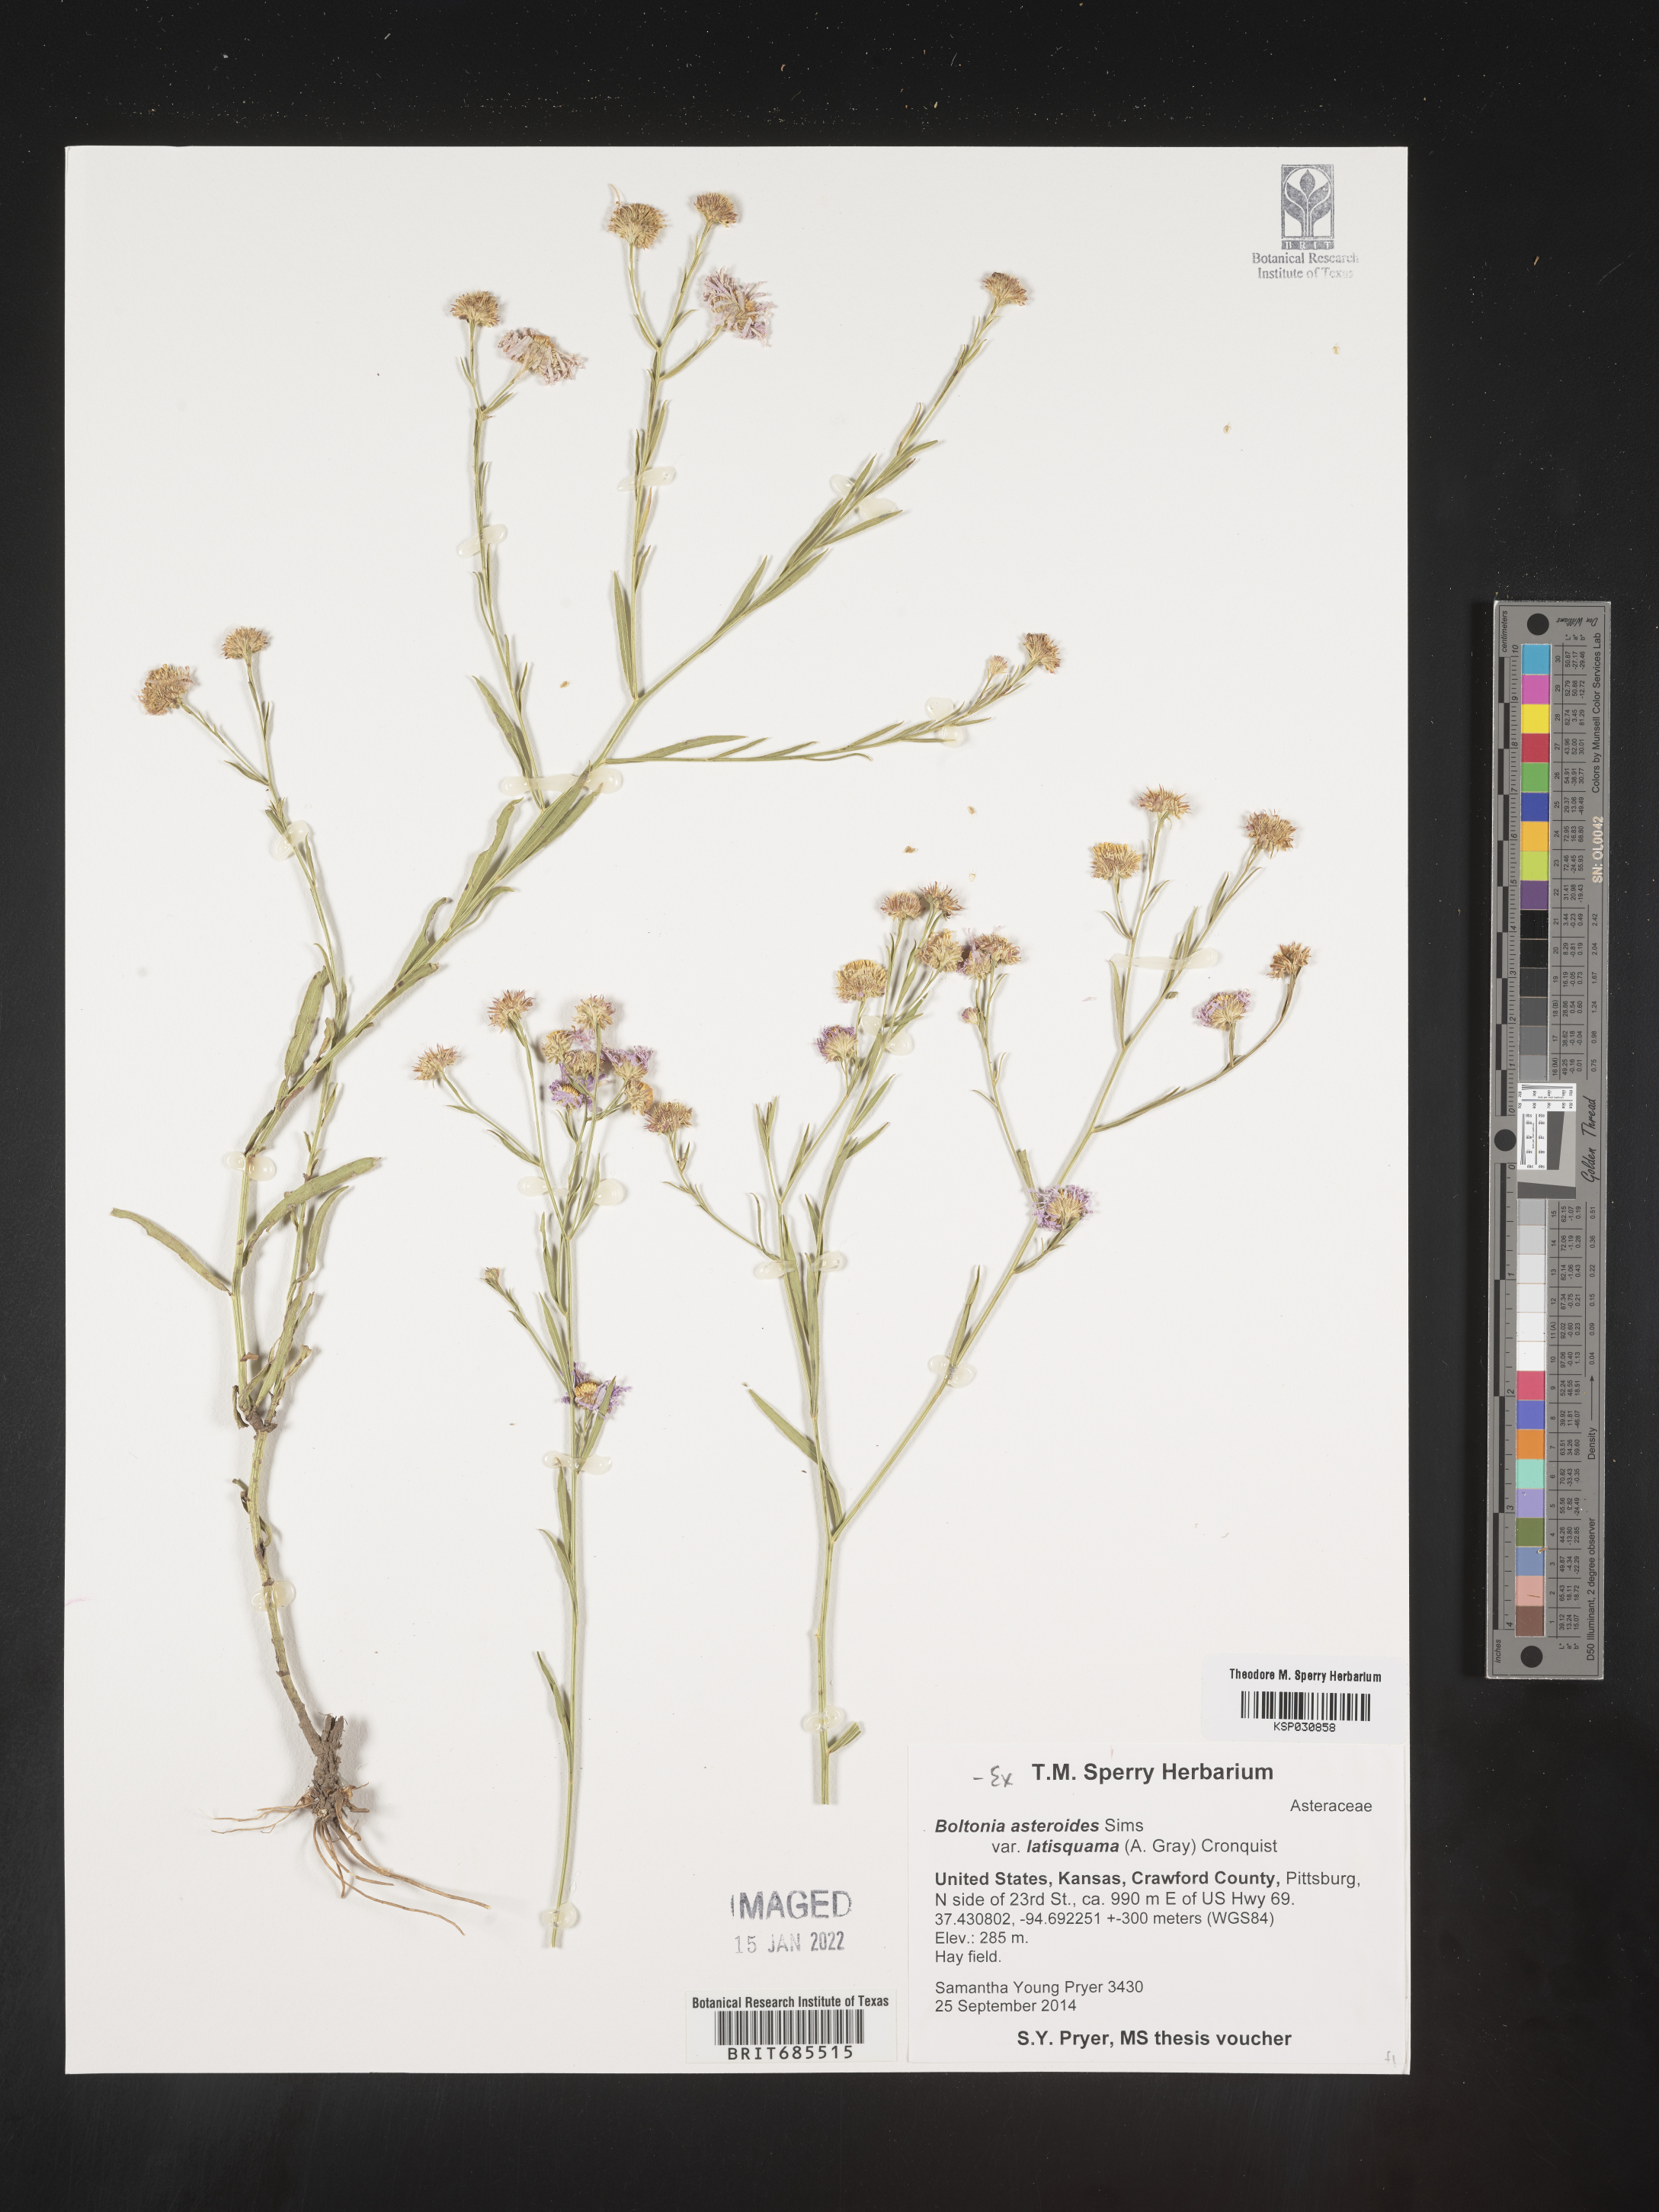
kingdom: Plantae
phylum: Tracheophyta
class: Magnoliopsida
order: Asterales
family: Asteraceae
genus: Boltonia
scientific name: Boltonia asteroides
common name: False chamomile
